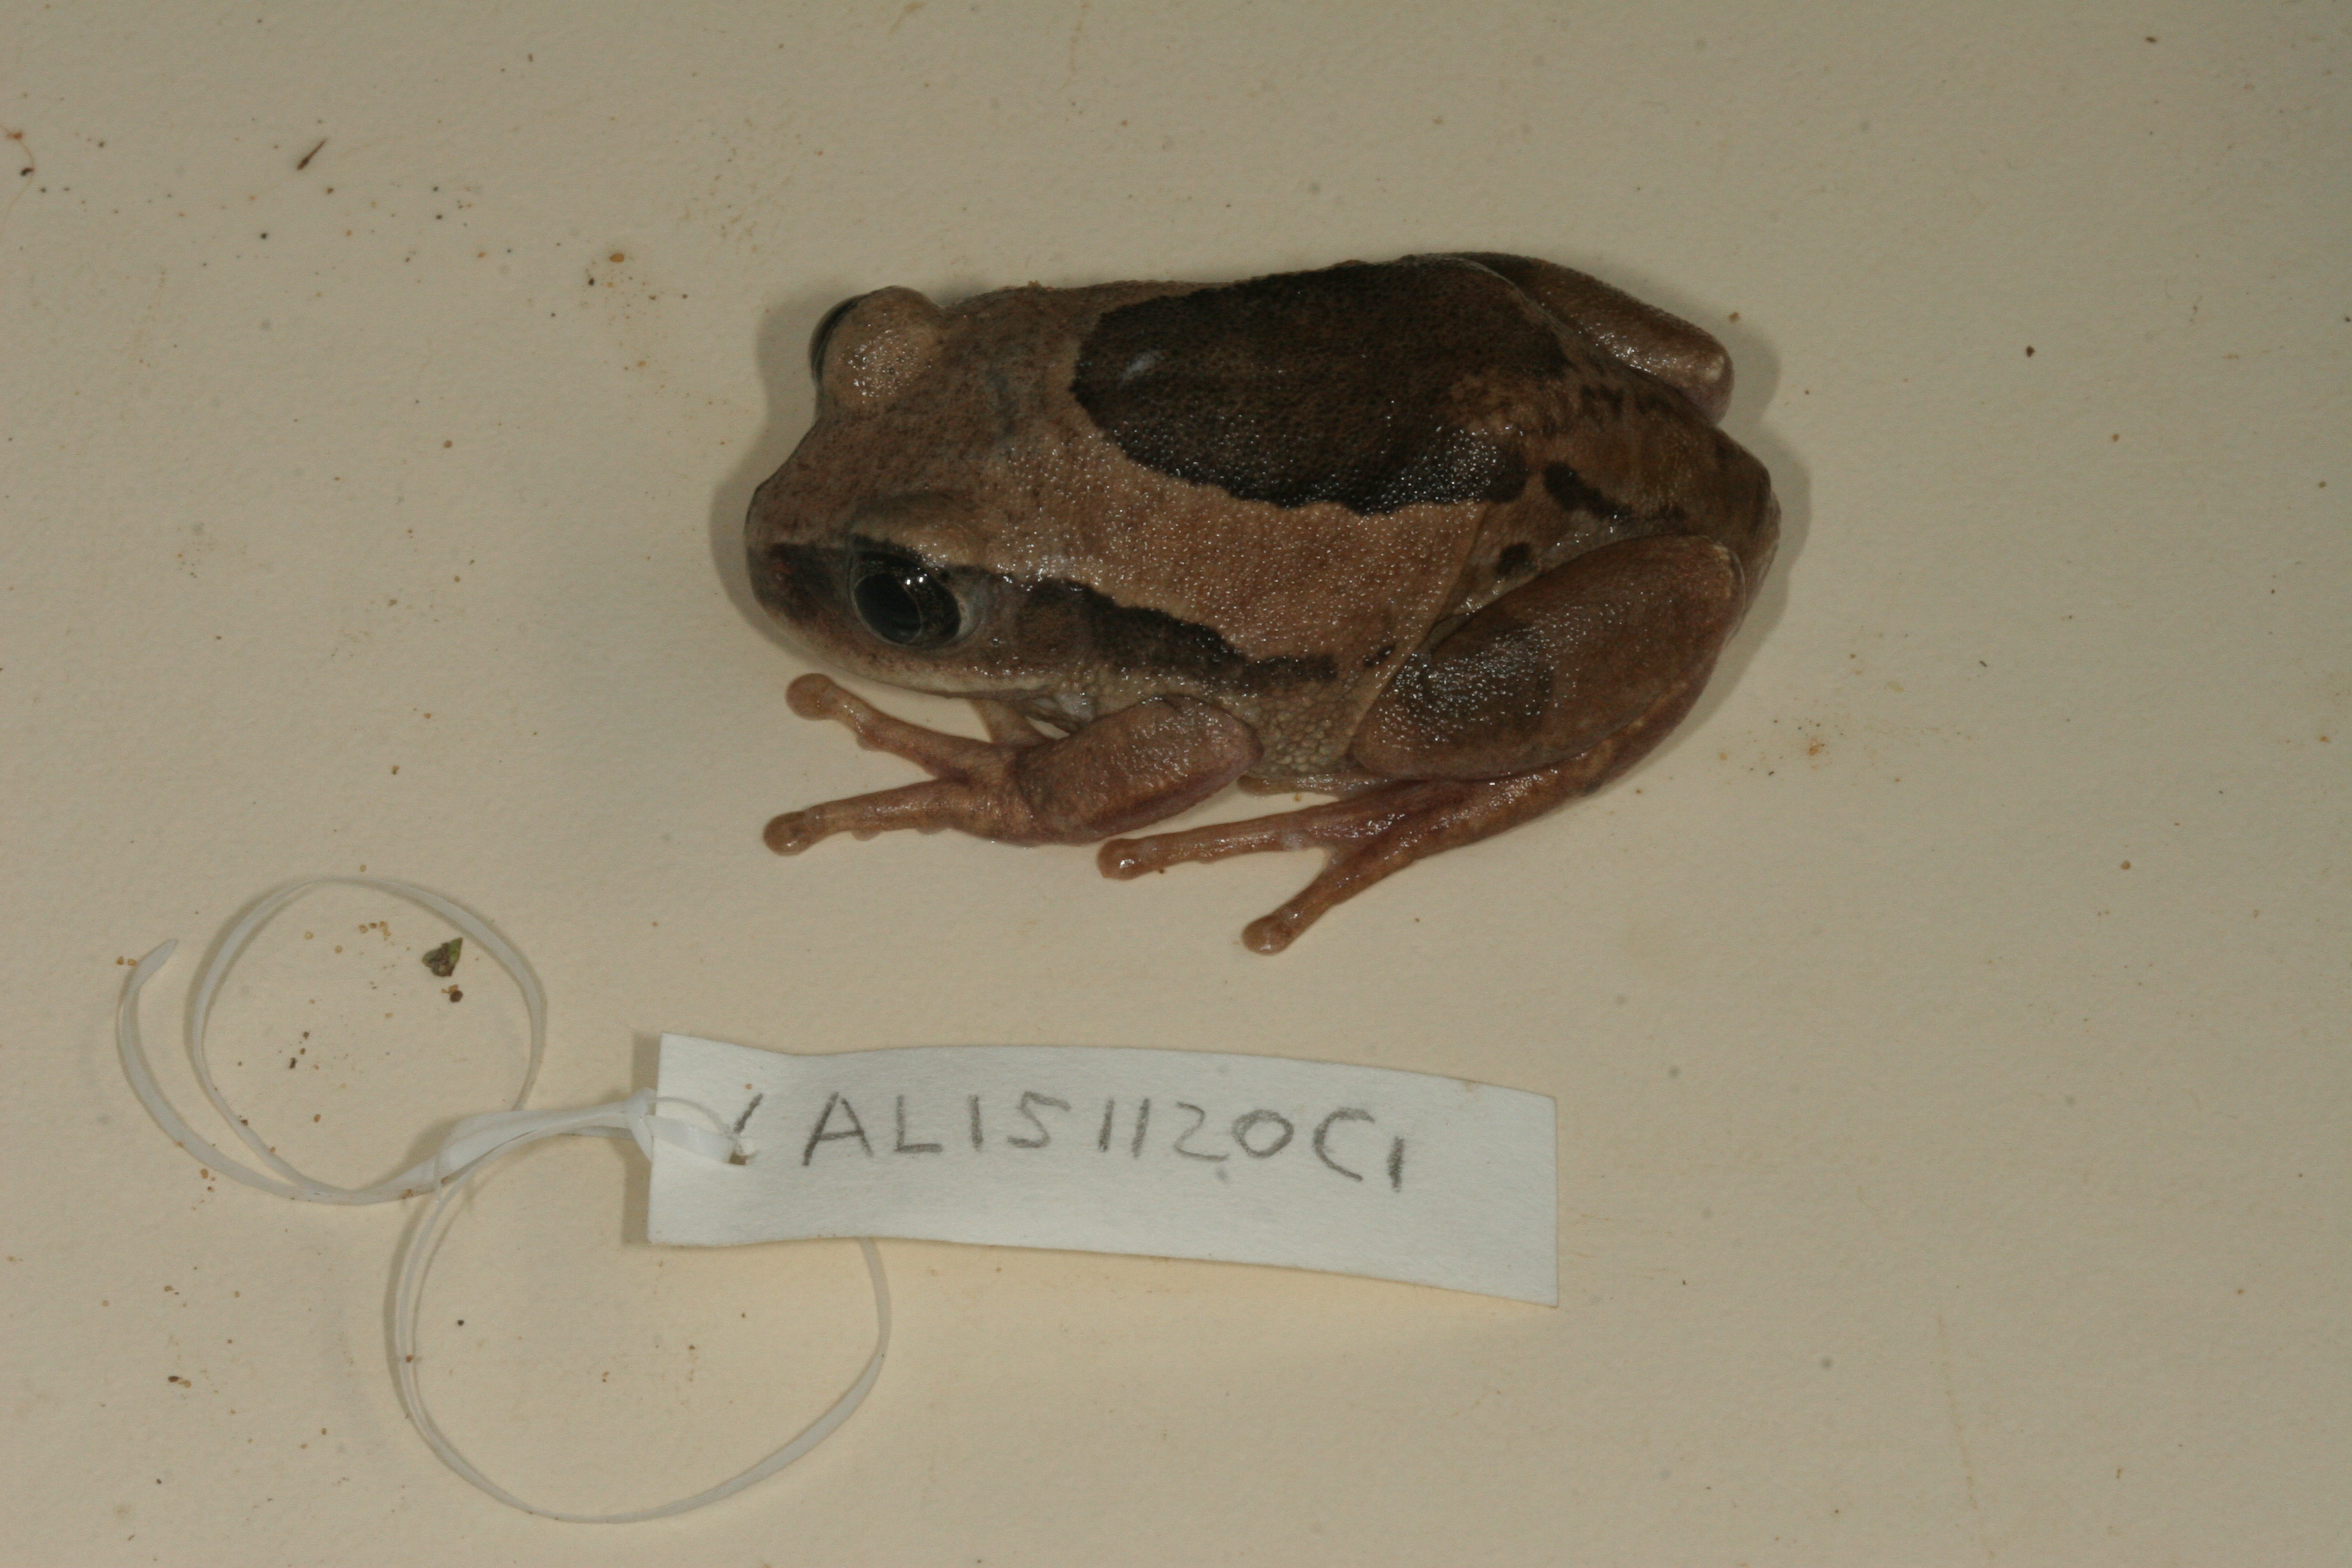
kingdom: Animalia
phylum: Chordata
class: Amphibia
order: Anura
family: Arthroleptidae
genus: Leptopelis
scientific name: Leptopelis mossambicus
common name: Mozambique tree frog
